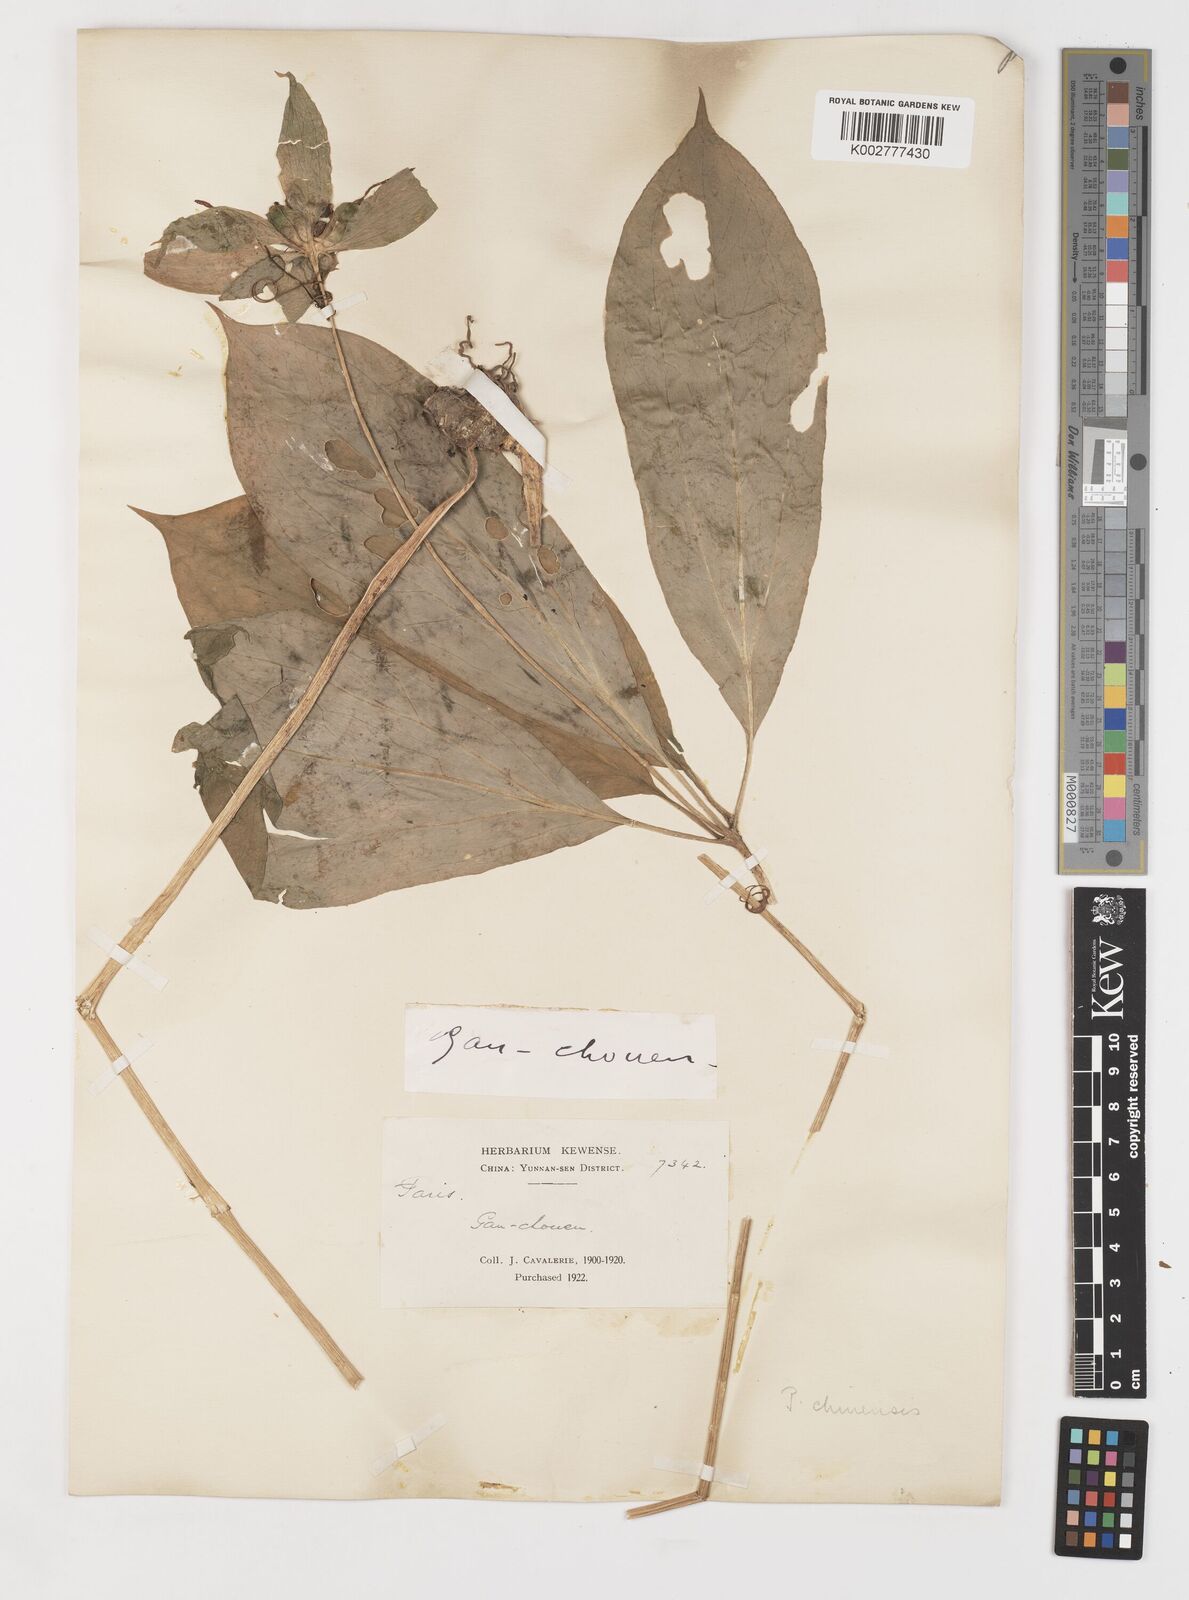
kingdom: Plantae
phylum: Tracheophyta
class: Liliopsida
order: Liliales
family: Melanthiaceae
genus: Paris
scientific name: Paris chinensis
